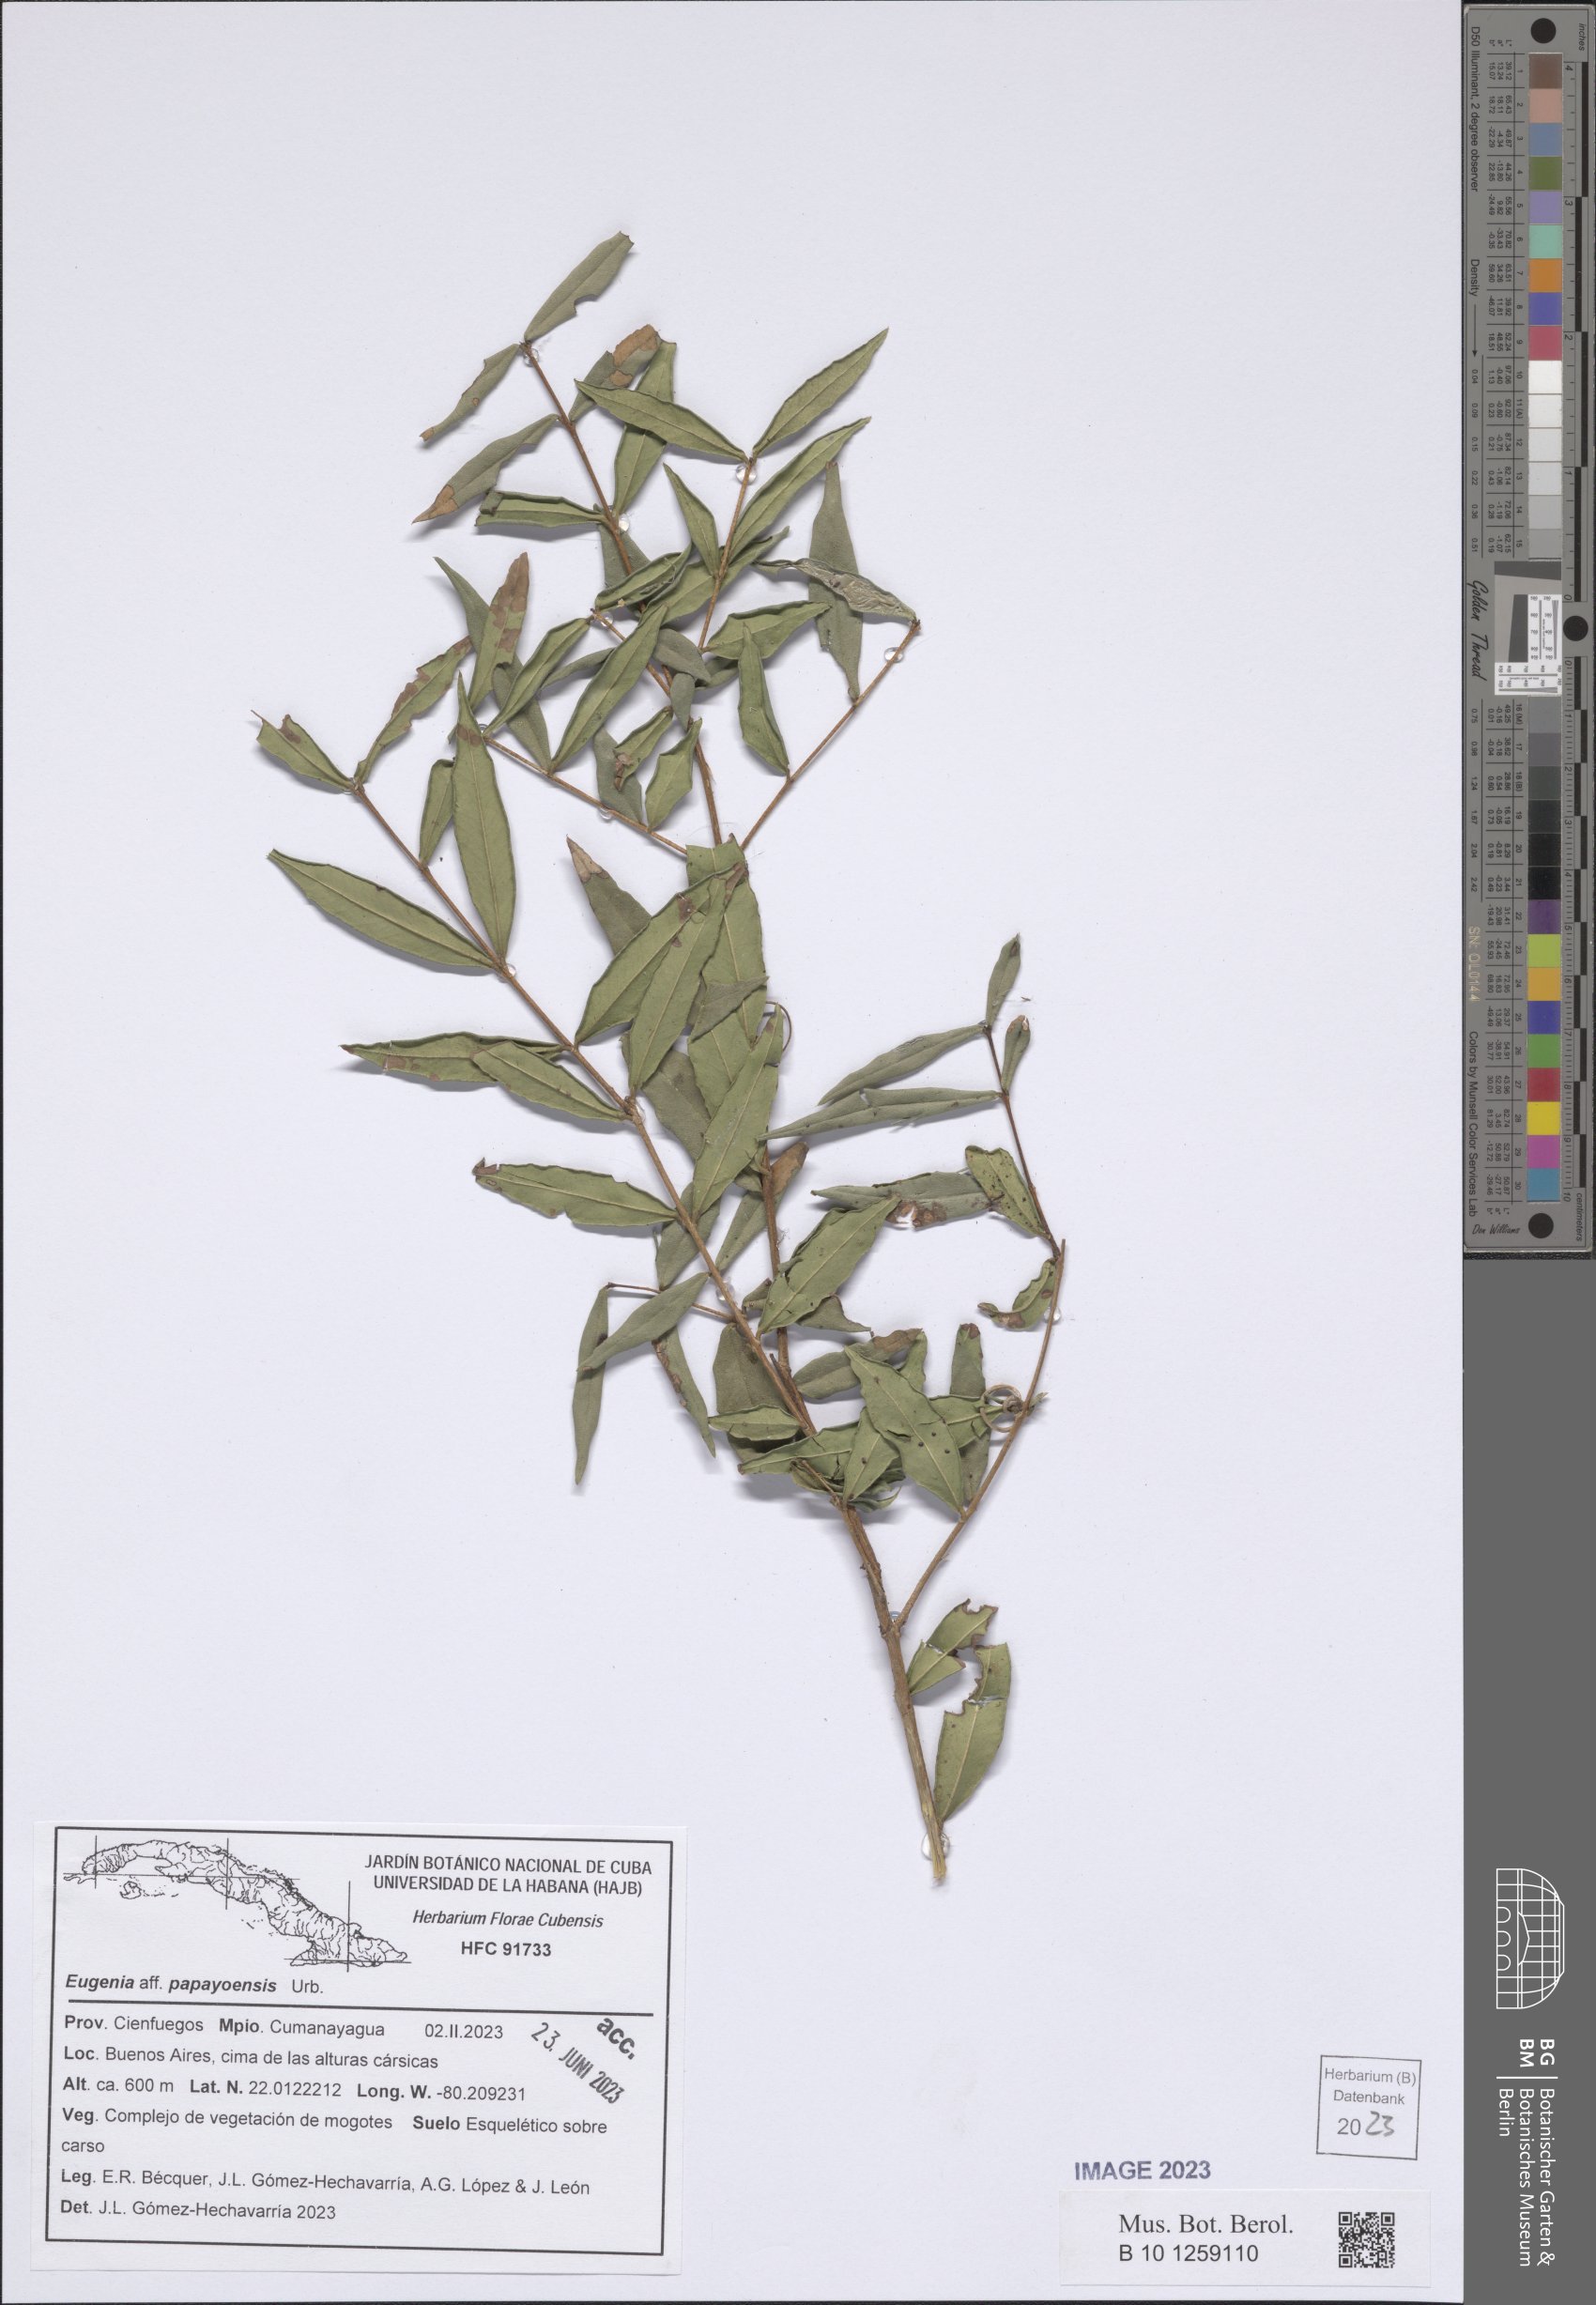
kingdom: Plantae
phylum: Tracheophyta
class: Magnoliopsida
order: Myrtales
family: Myrtaceae
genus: Eugenia
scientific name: Eugenia papayoensis
